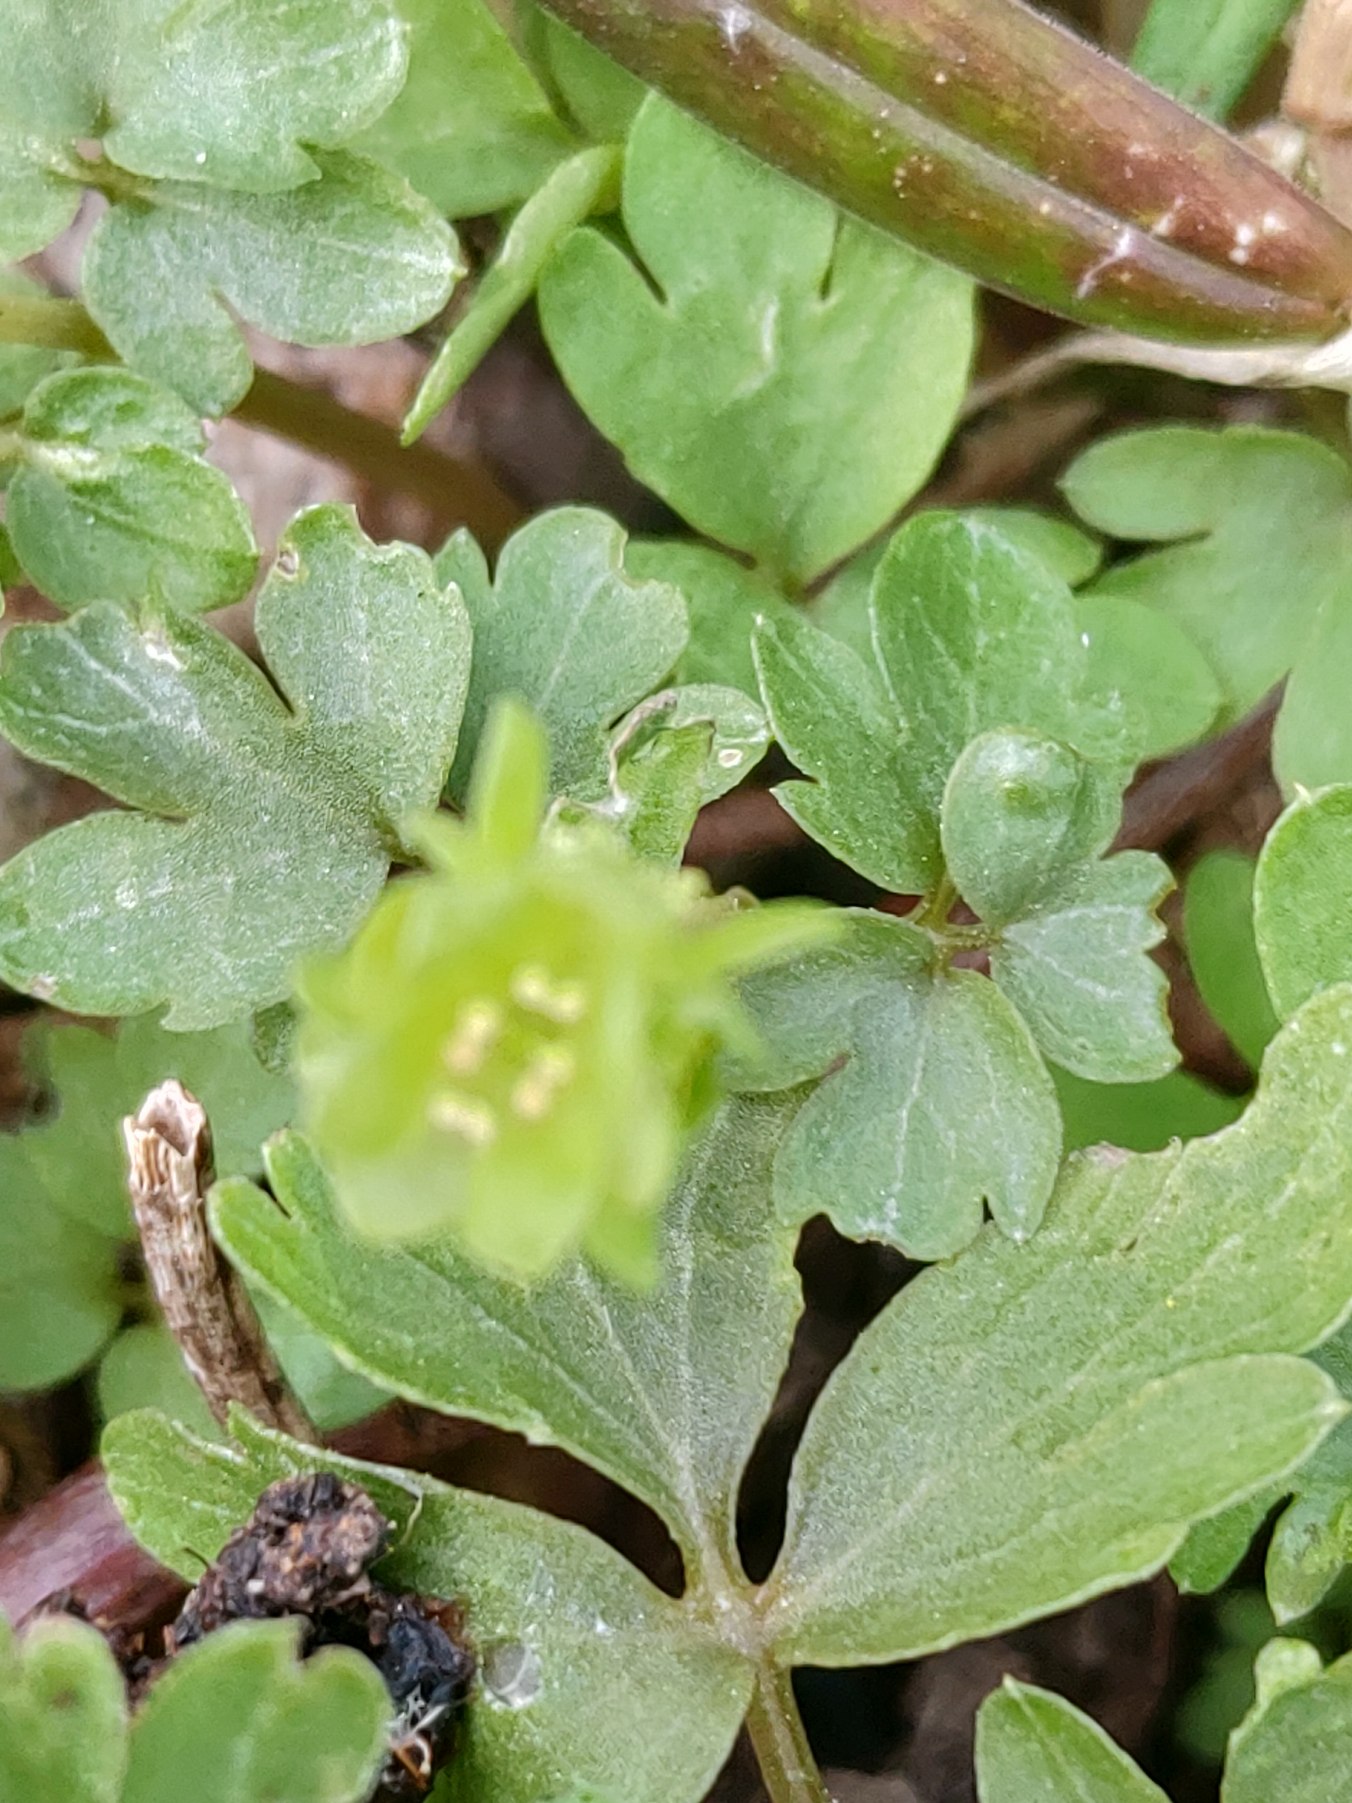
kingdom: Plantae
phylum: Tracheophyta
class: Magnoliopsida
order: Dipsacales
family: Viburnaceae
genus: Adoxa
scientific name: Adoxa moschatellina
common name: Desmerurt
